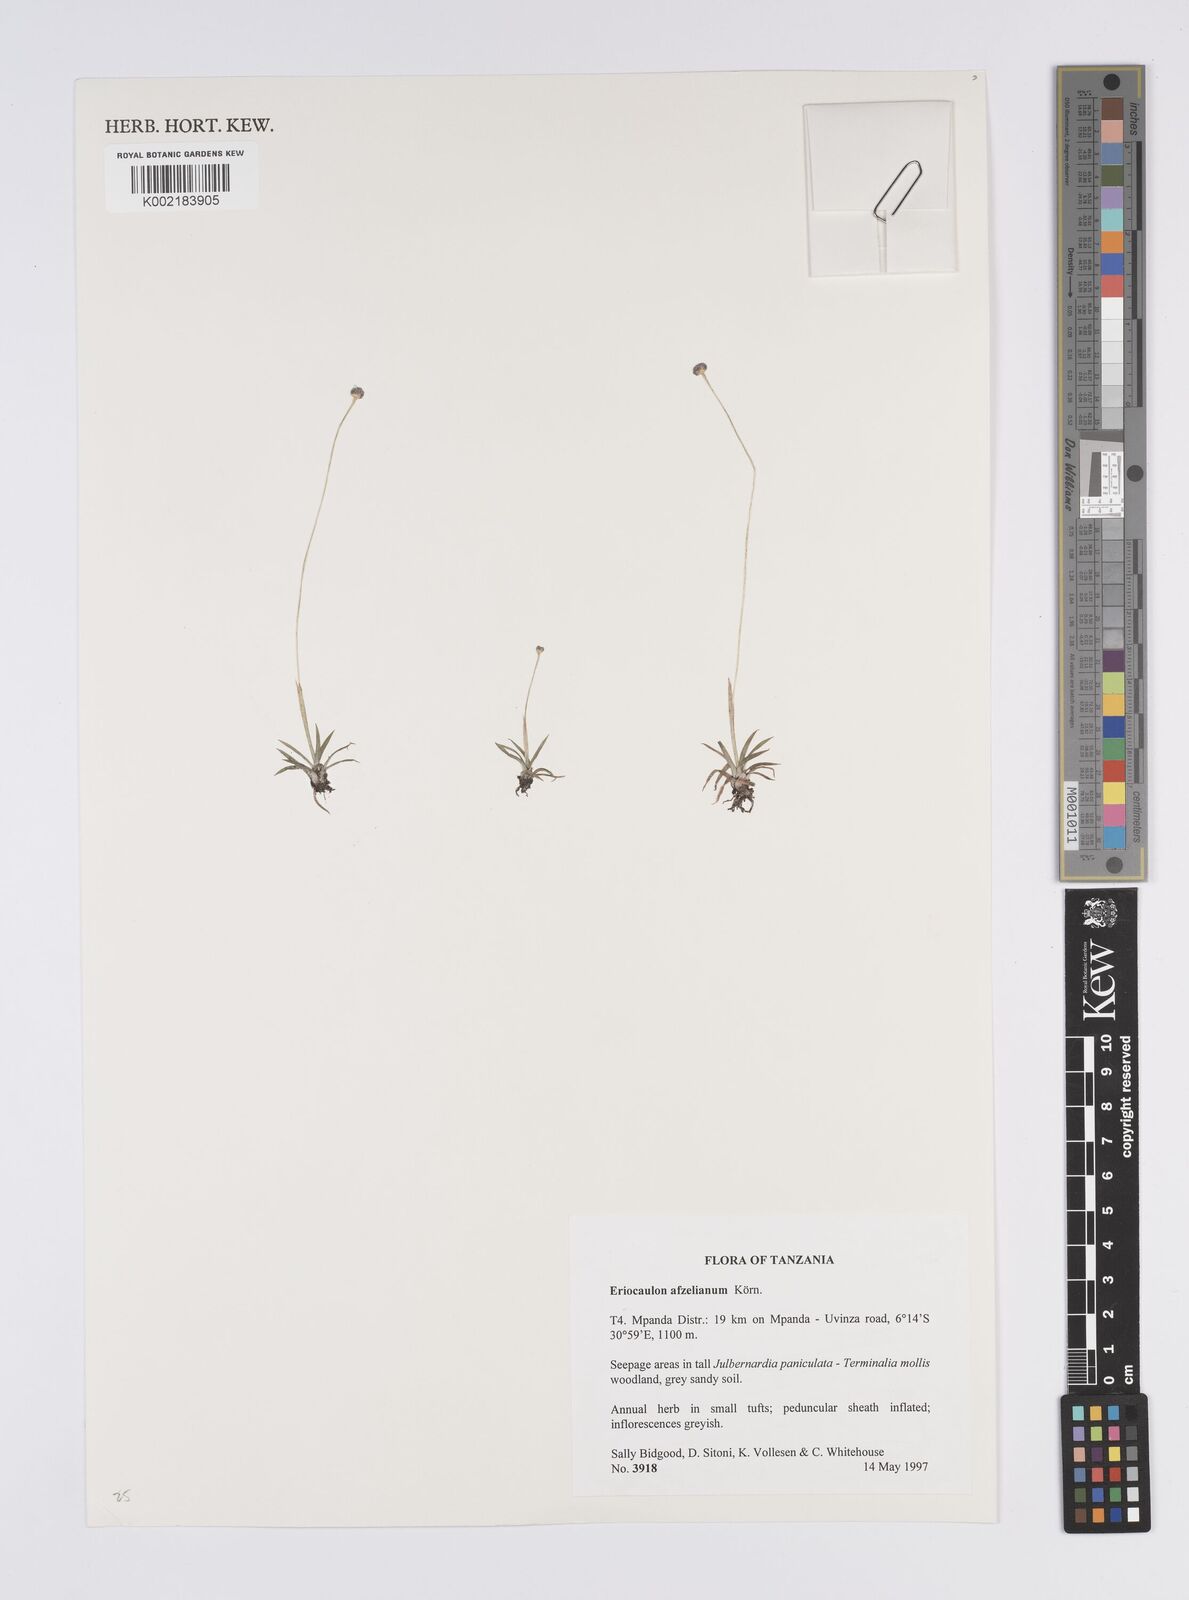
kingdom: Plantae
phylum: Tracheophyta
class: Liliopsida
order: Poales
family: Eriocaulaceae
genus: Eriocaulon
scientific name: Eriocaulon afzelianum
